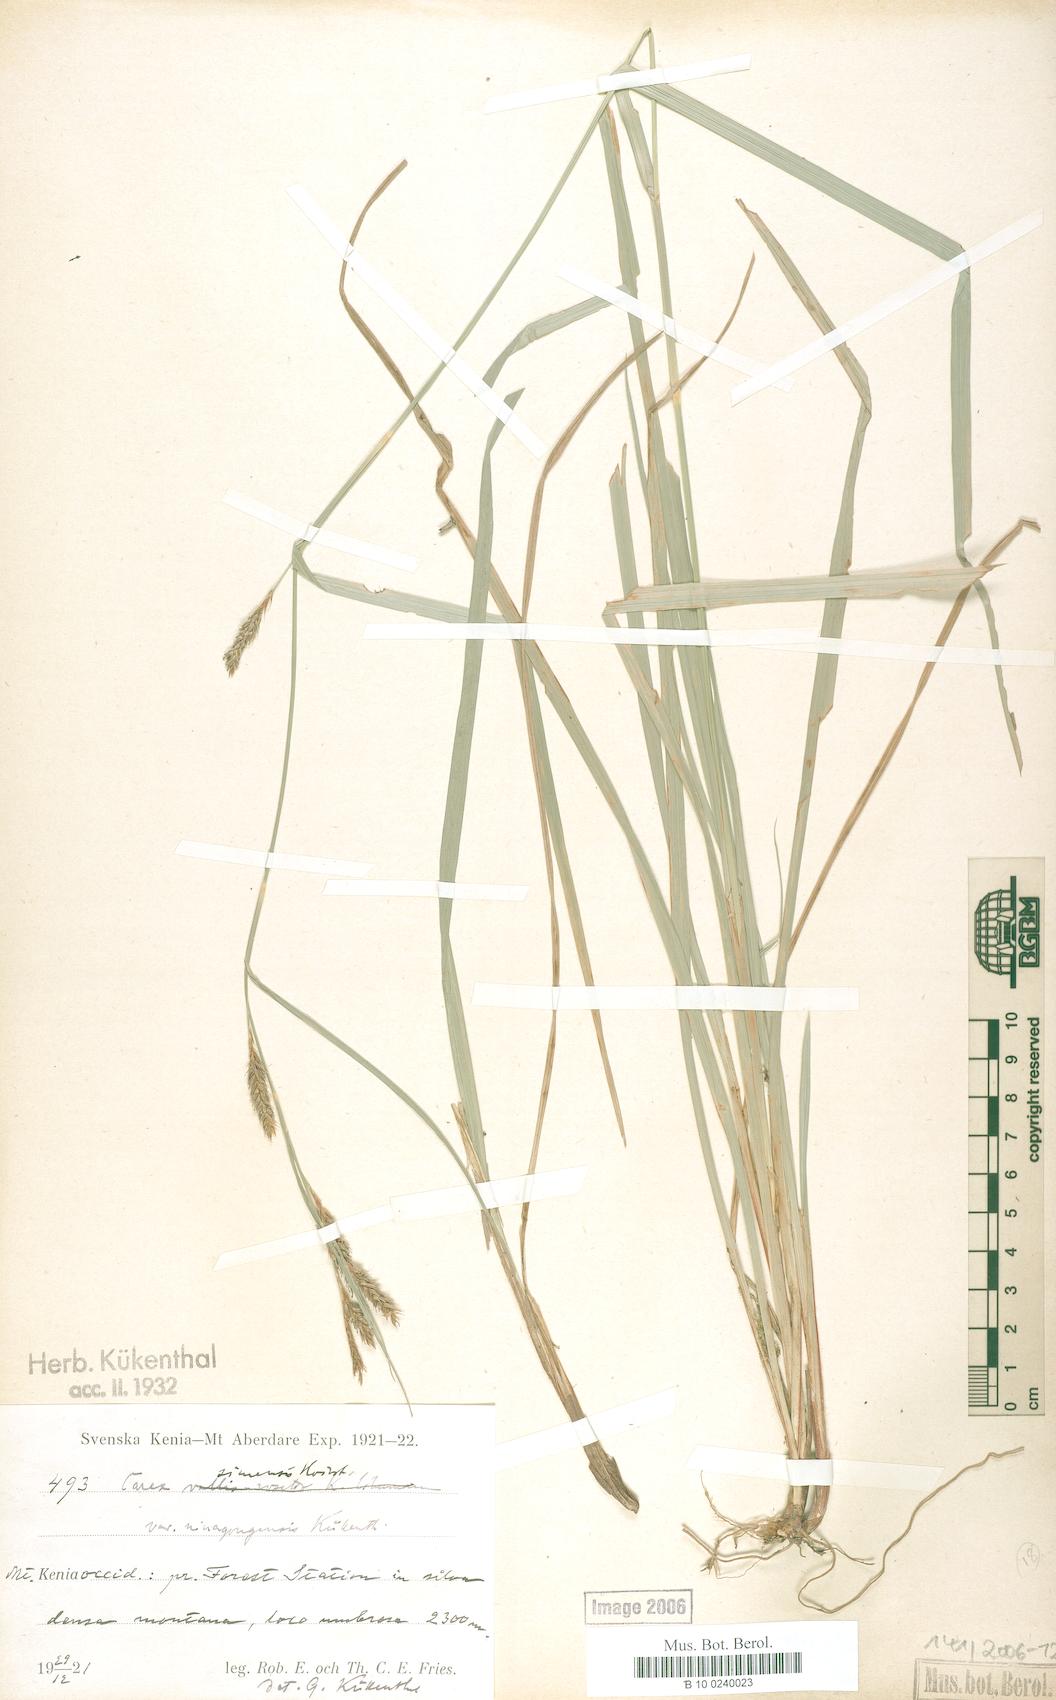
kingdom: Plantae
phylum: Tracheophyta
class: Liliopsida
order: Poales
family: Cyperaceae
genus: Carex
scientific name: Carex fischeri
